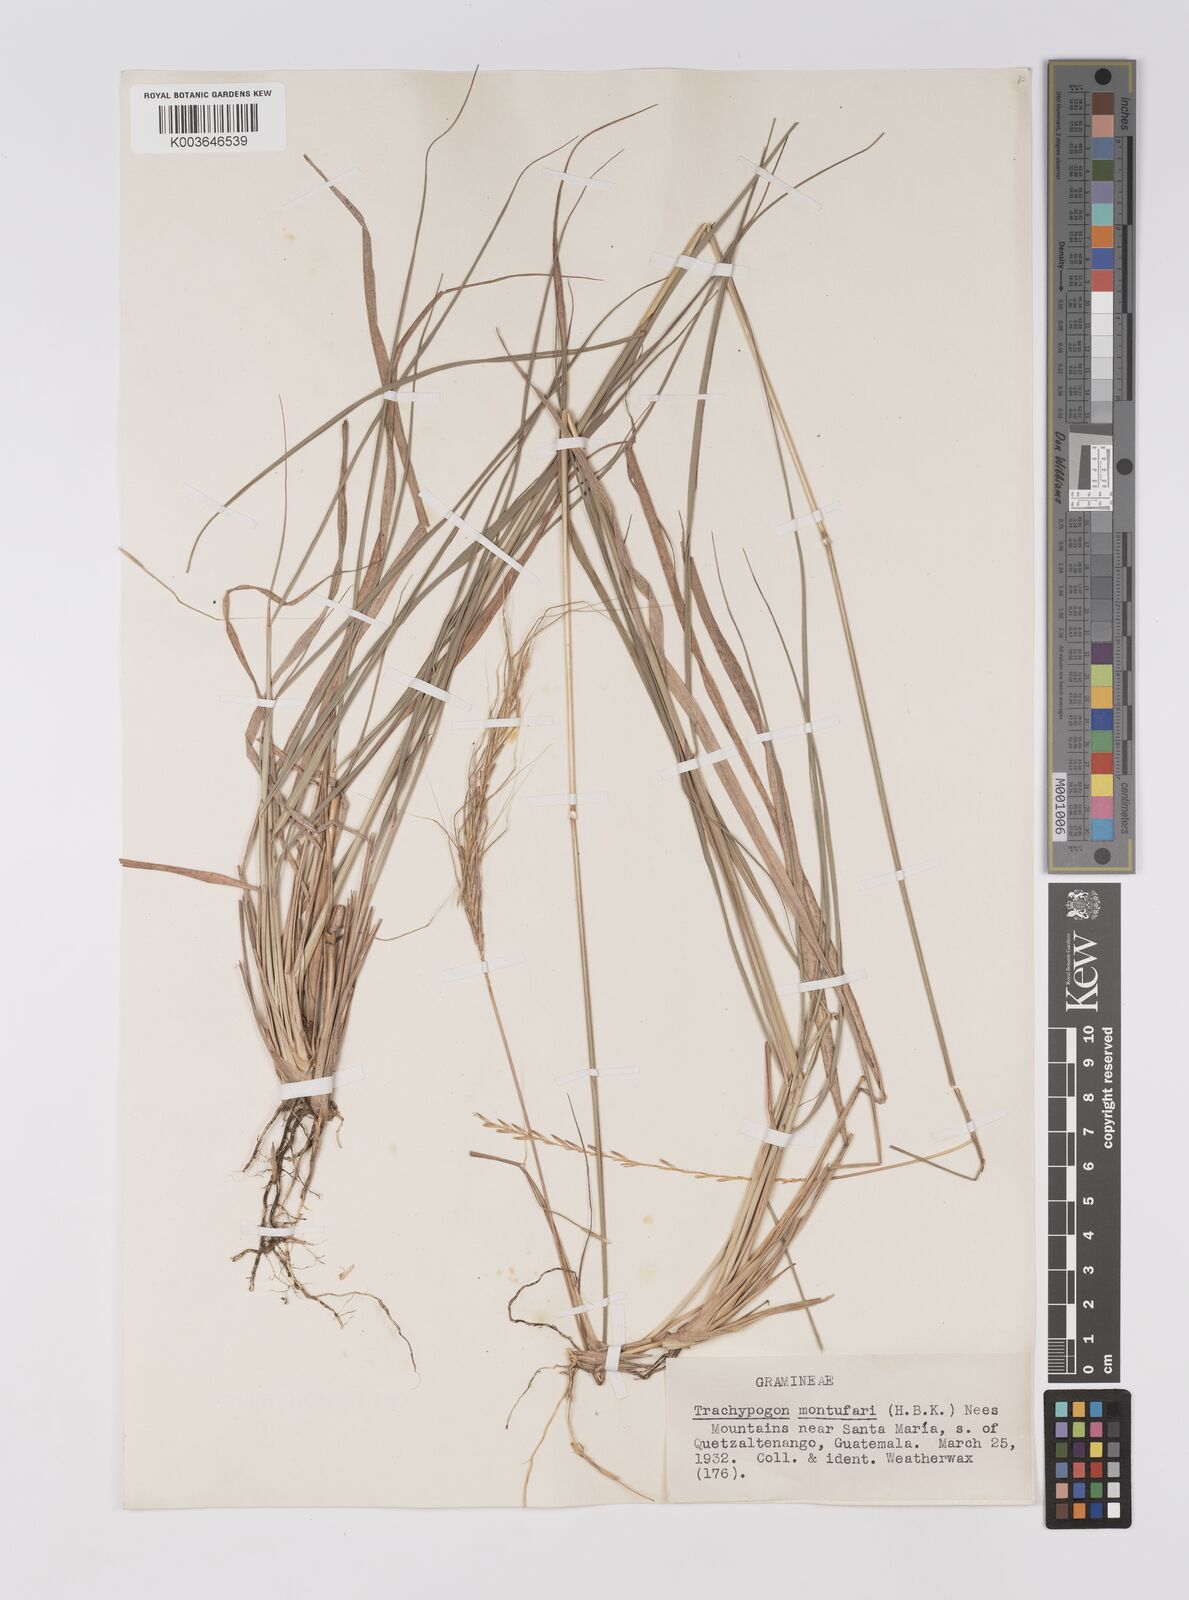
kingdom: Plantae
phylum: Tracheophyta
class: Liliopsida
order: Poales
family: Poaceae
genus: Trachypogon
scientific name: Trachypogon spicatus
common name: Crinkle-awn
